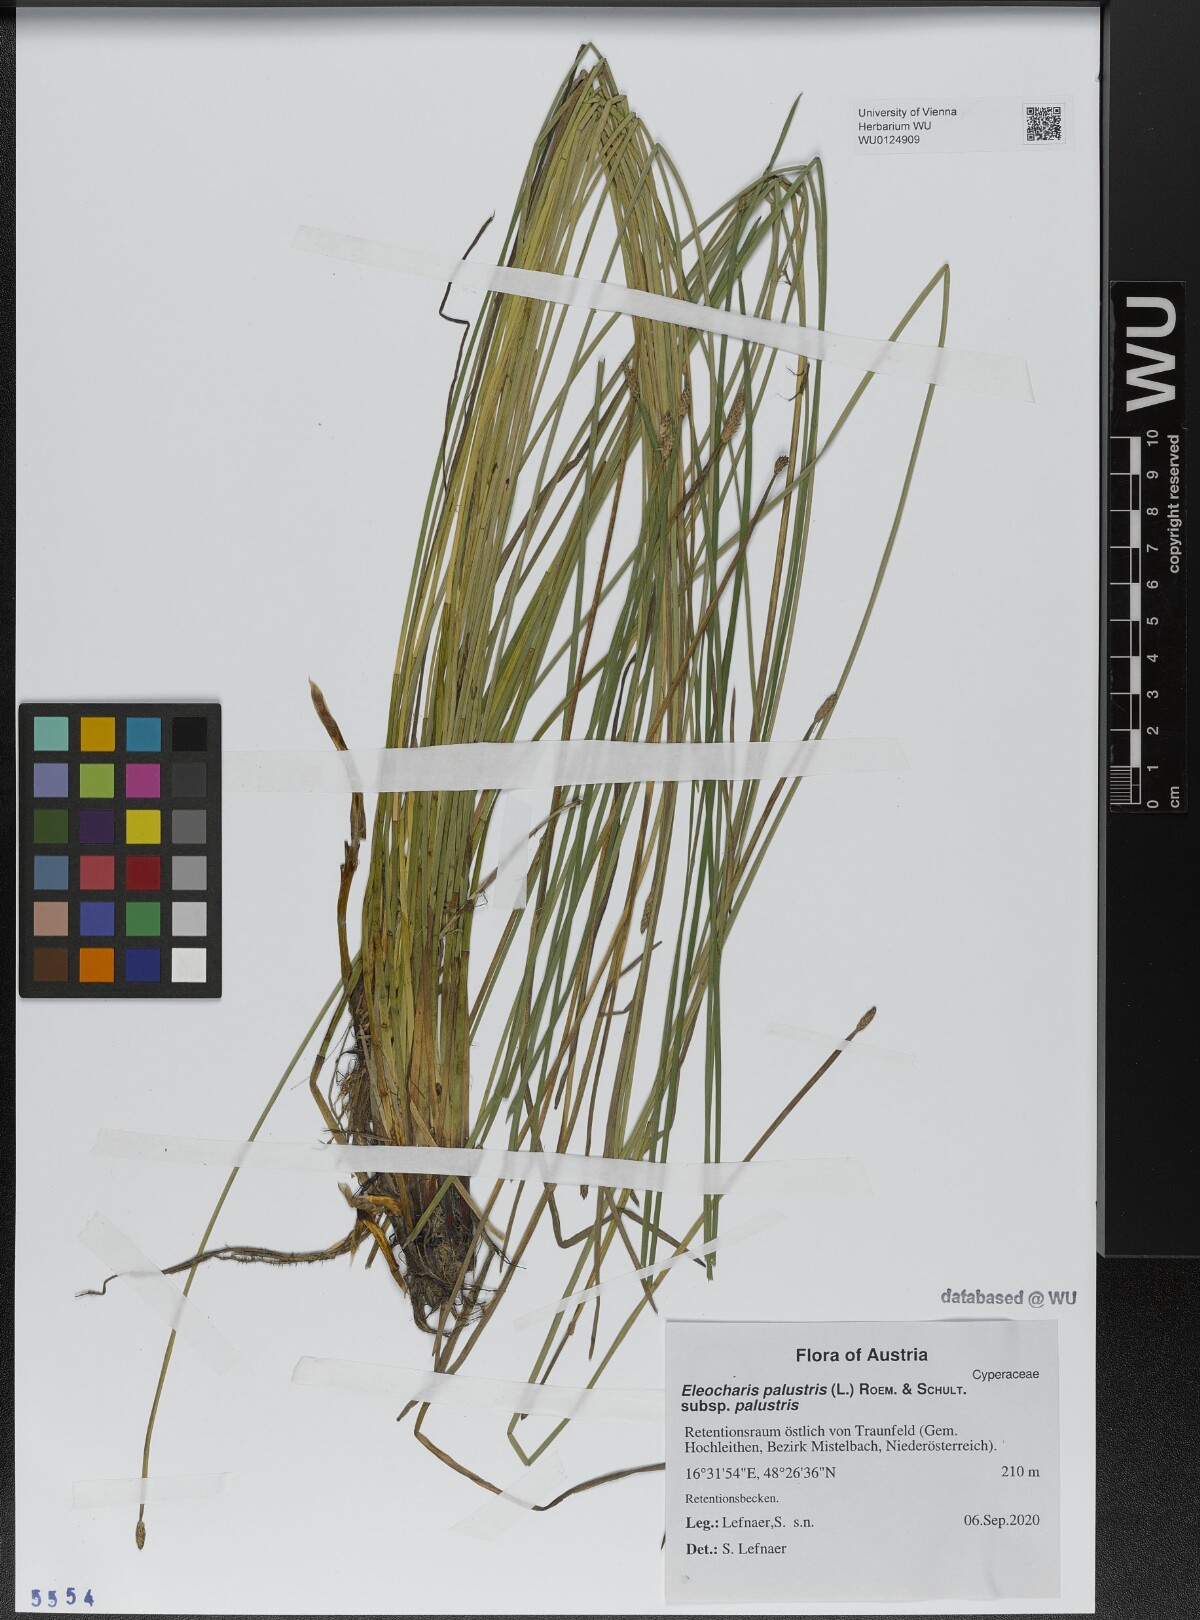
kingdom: Plantae
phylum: Tracheophyta
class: Liliopsida
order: Poales
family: Cyperaceae
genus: Eleocharis
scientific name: Eleocharis palustris
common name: Common spike-rush
